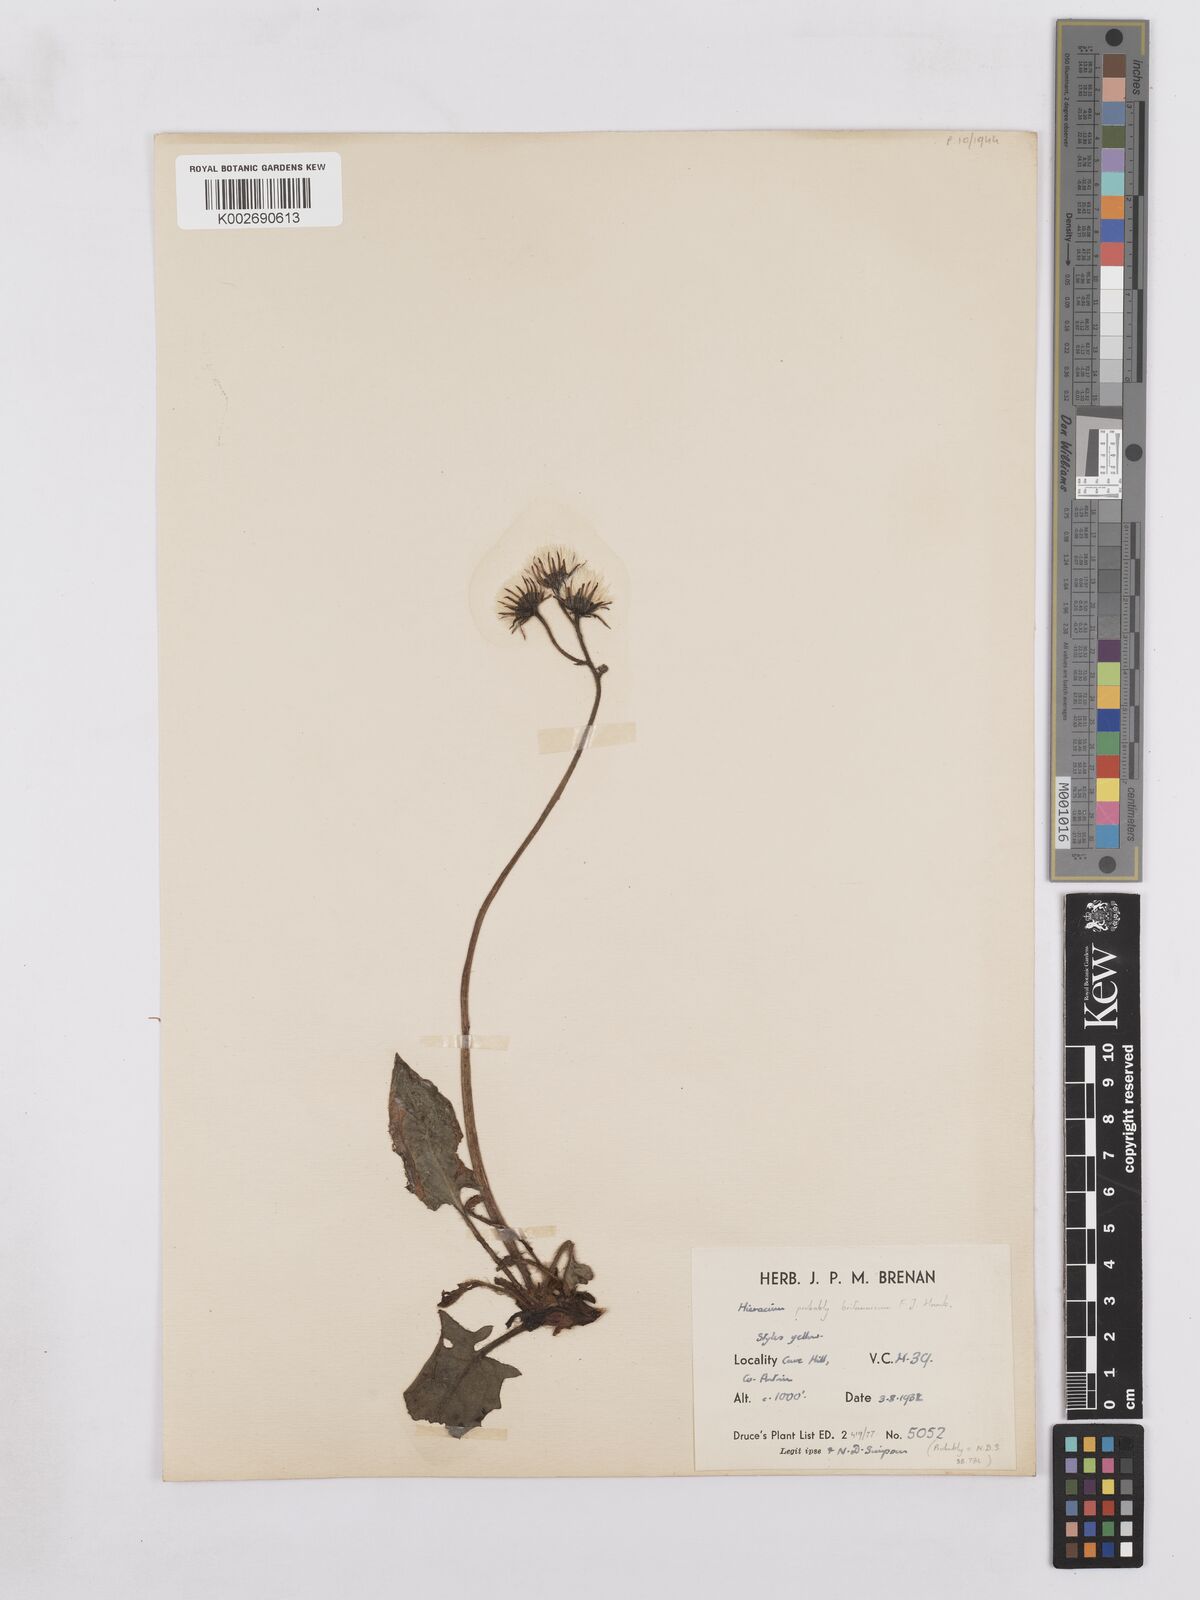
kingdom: Plantae
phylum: Tracheophyta
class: Magnoliopsida
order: Asterales
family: Asteraceae
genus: Hieracium
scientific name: Hieracium britannicum
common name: British hawkweed
